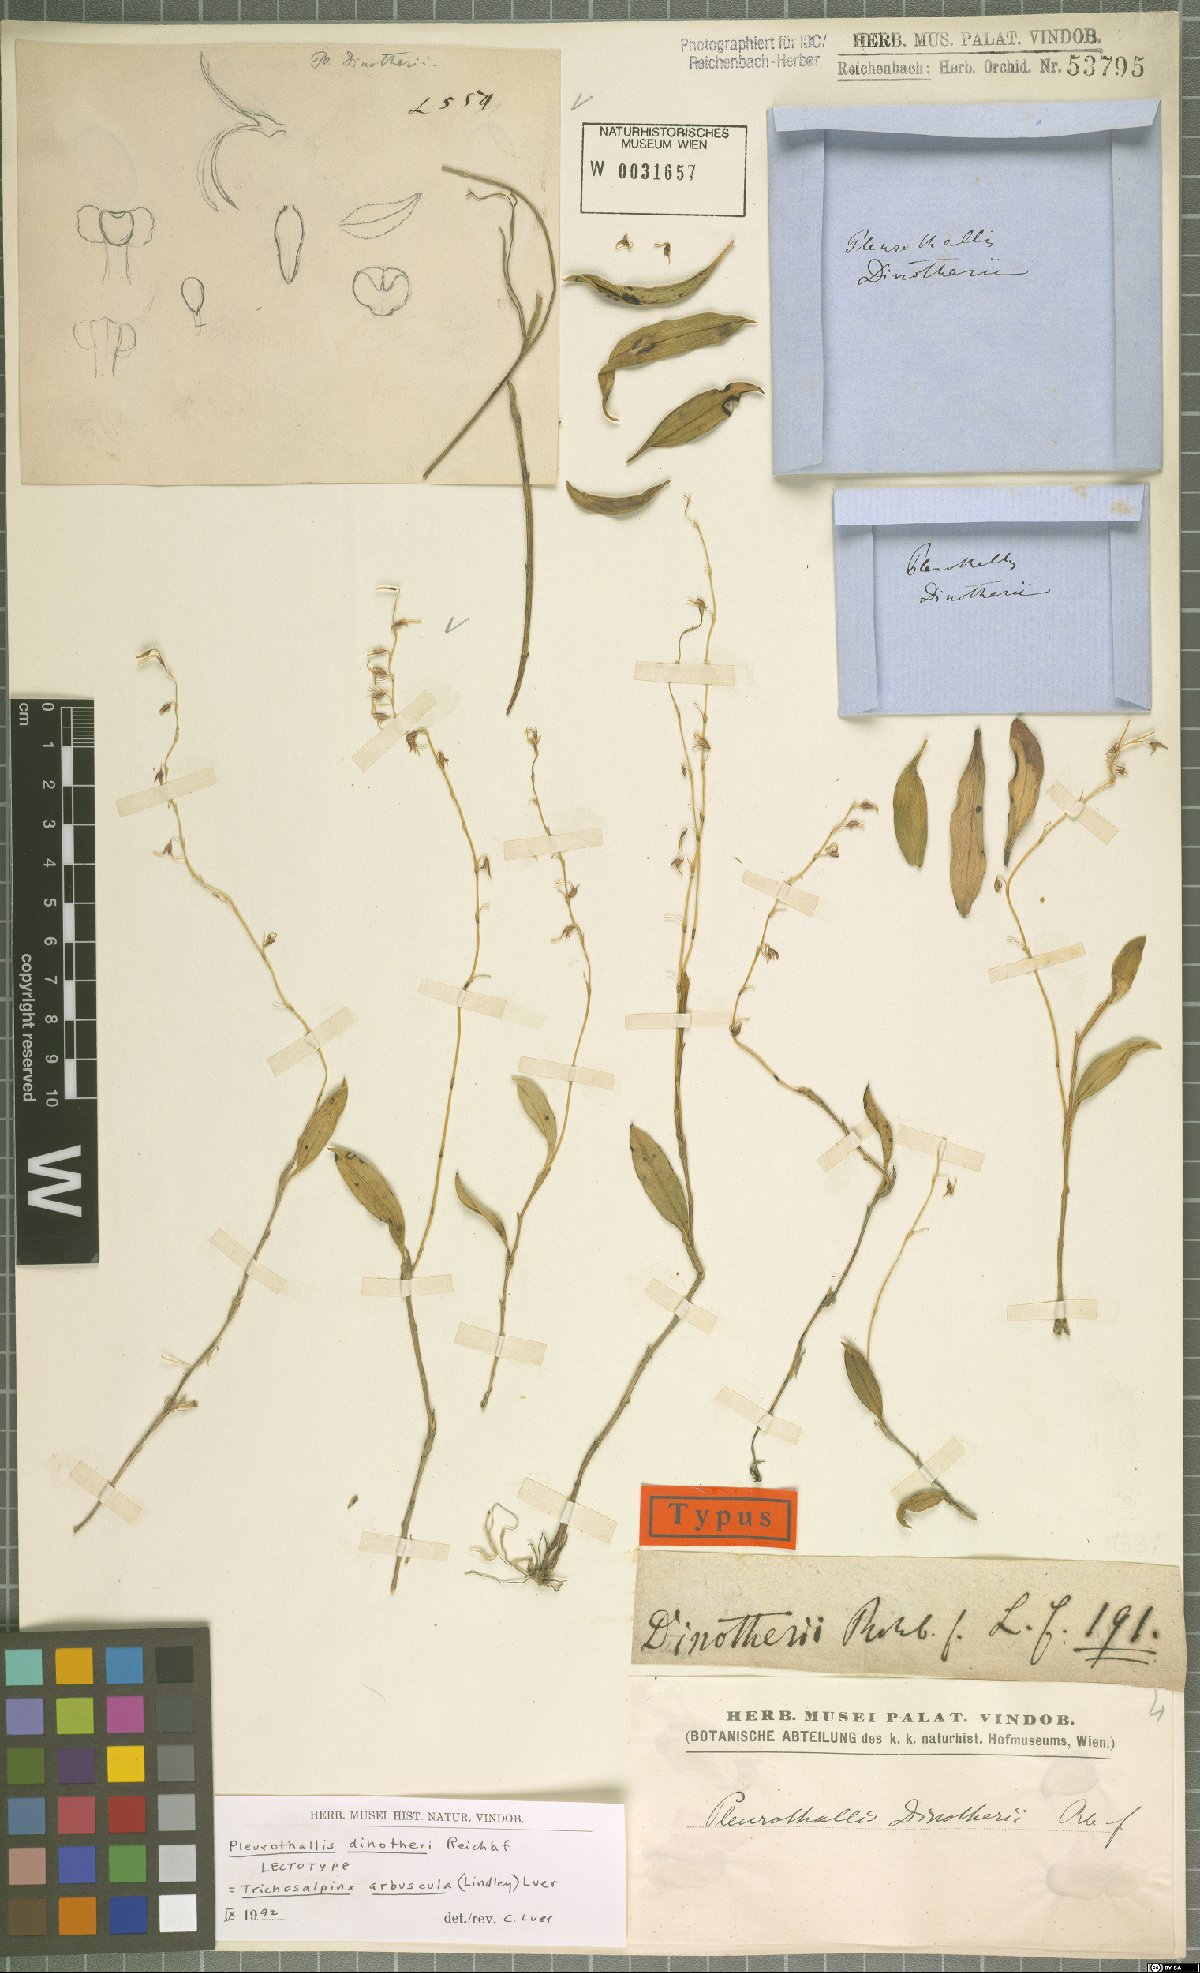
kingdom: Plantae
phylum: Tracheophyta
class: Liliopsida
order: Asparagales
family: Orchidaceae
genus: Trichosalpinx
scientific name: Trichosalpinx arbuscula
